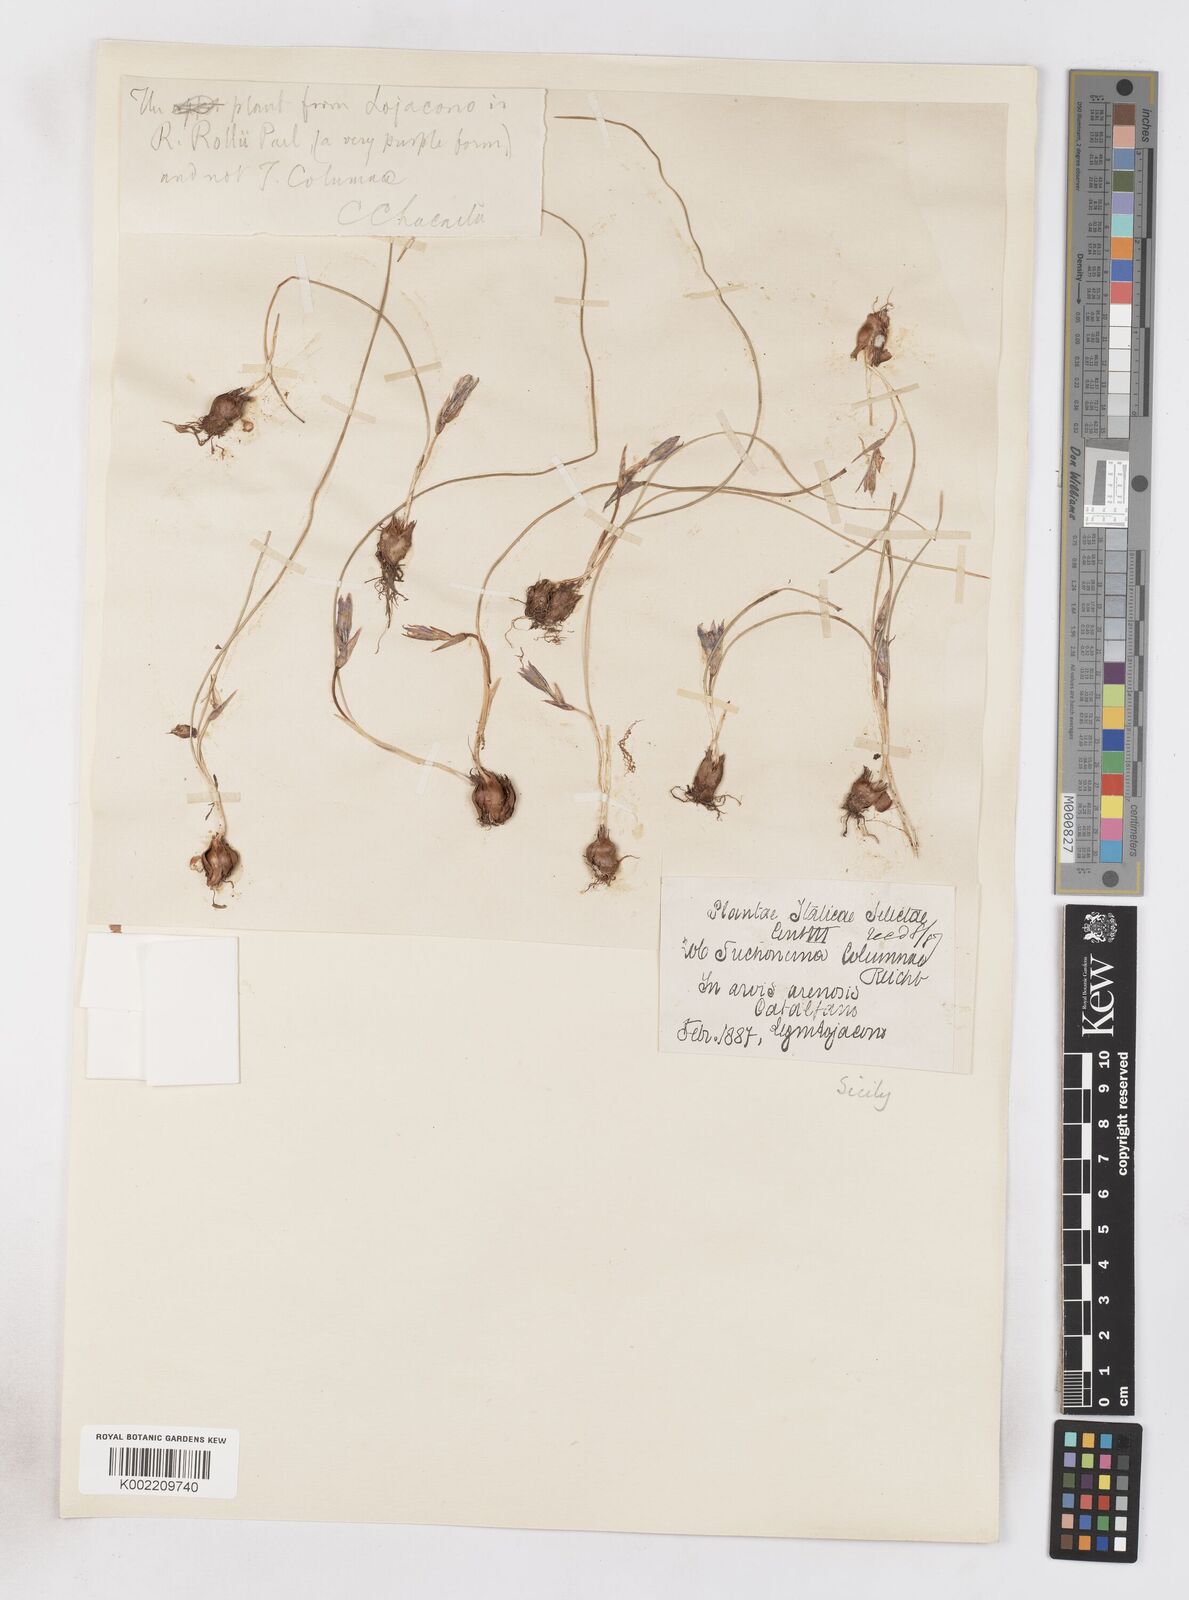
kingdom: Plantae
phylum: Tracheophyta
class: Liliopsida
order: Asparagales
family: Iridaceae
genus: Romulea
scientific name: Romulea columnae
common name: Sand-crocus
